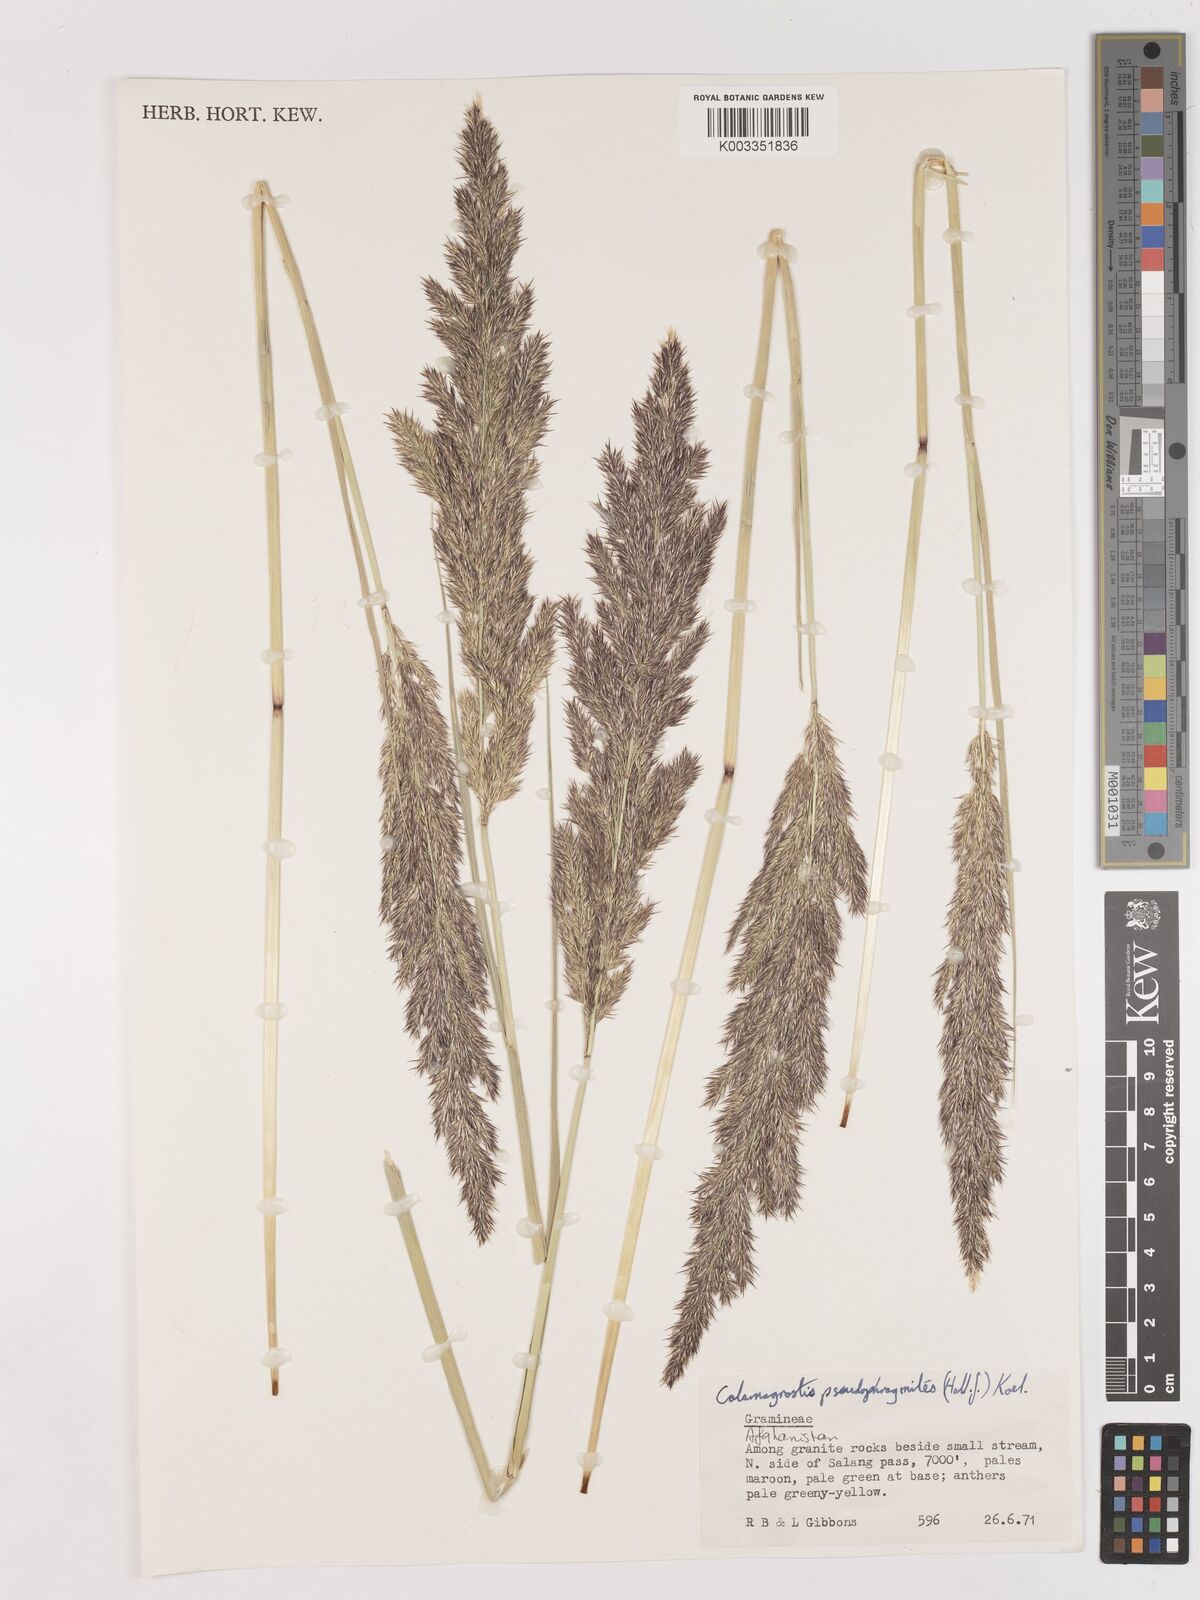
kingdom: Plantae
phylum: Tracheophyta
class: Liliopsida
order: Poales
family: Poaceae
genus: Calamagrostis
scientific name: Calamagrostis pseudophragmites
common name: Coastal small-reed
